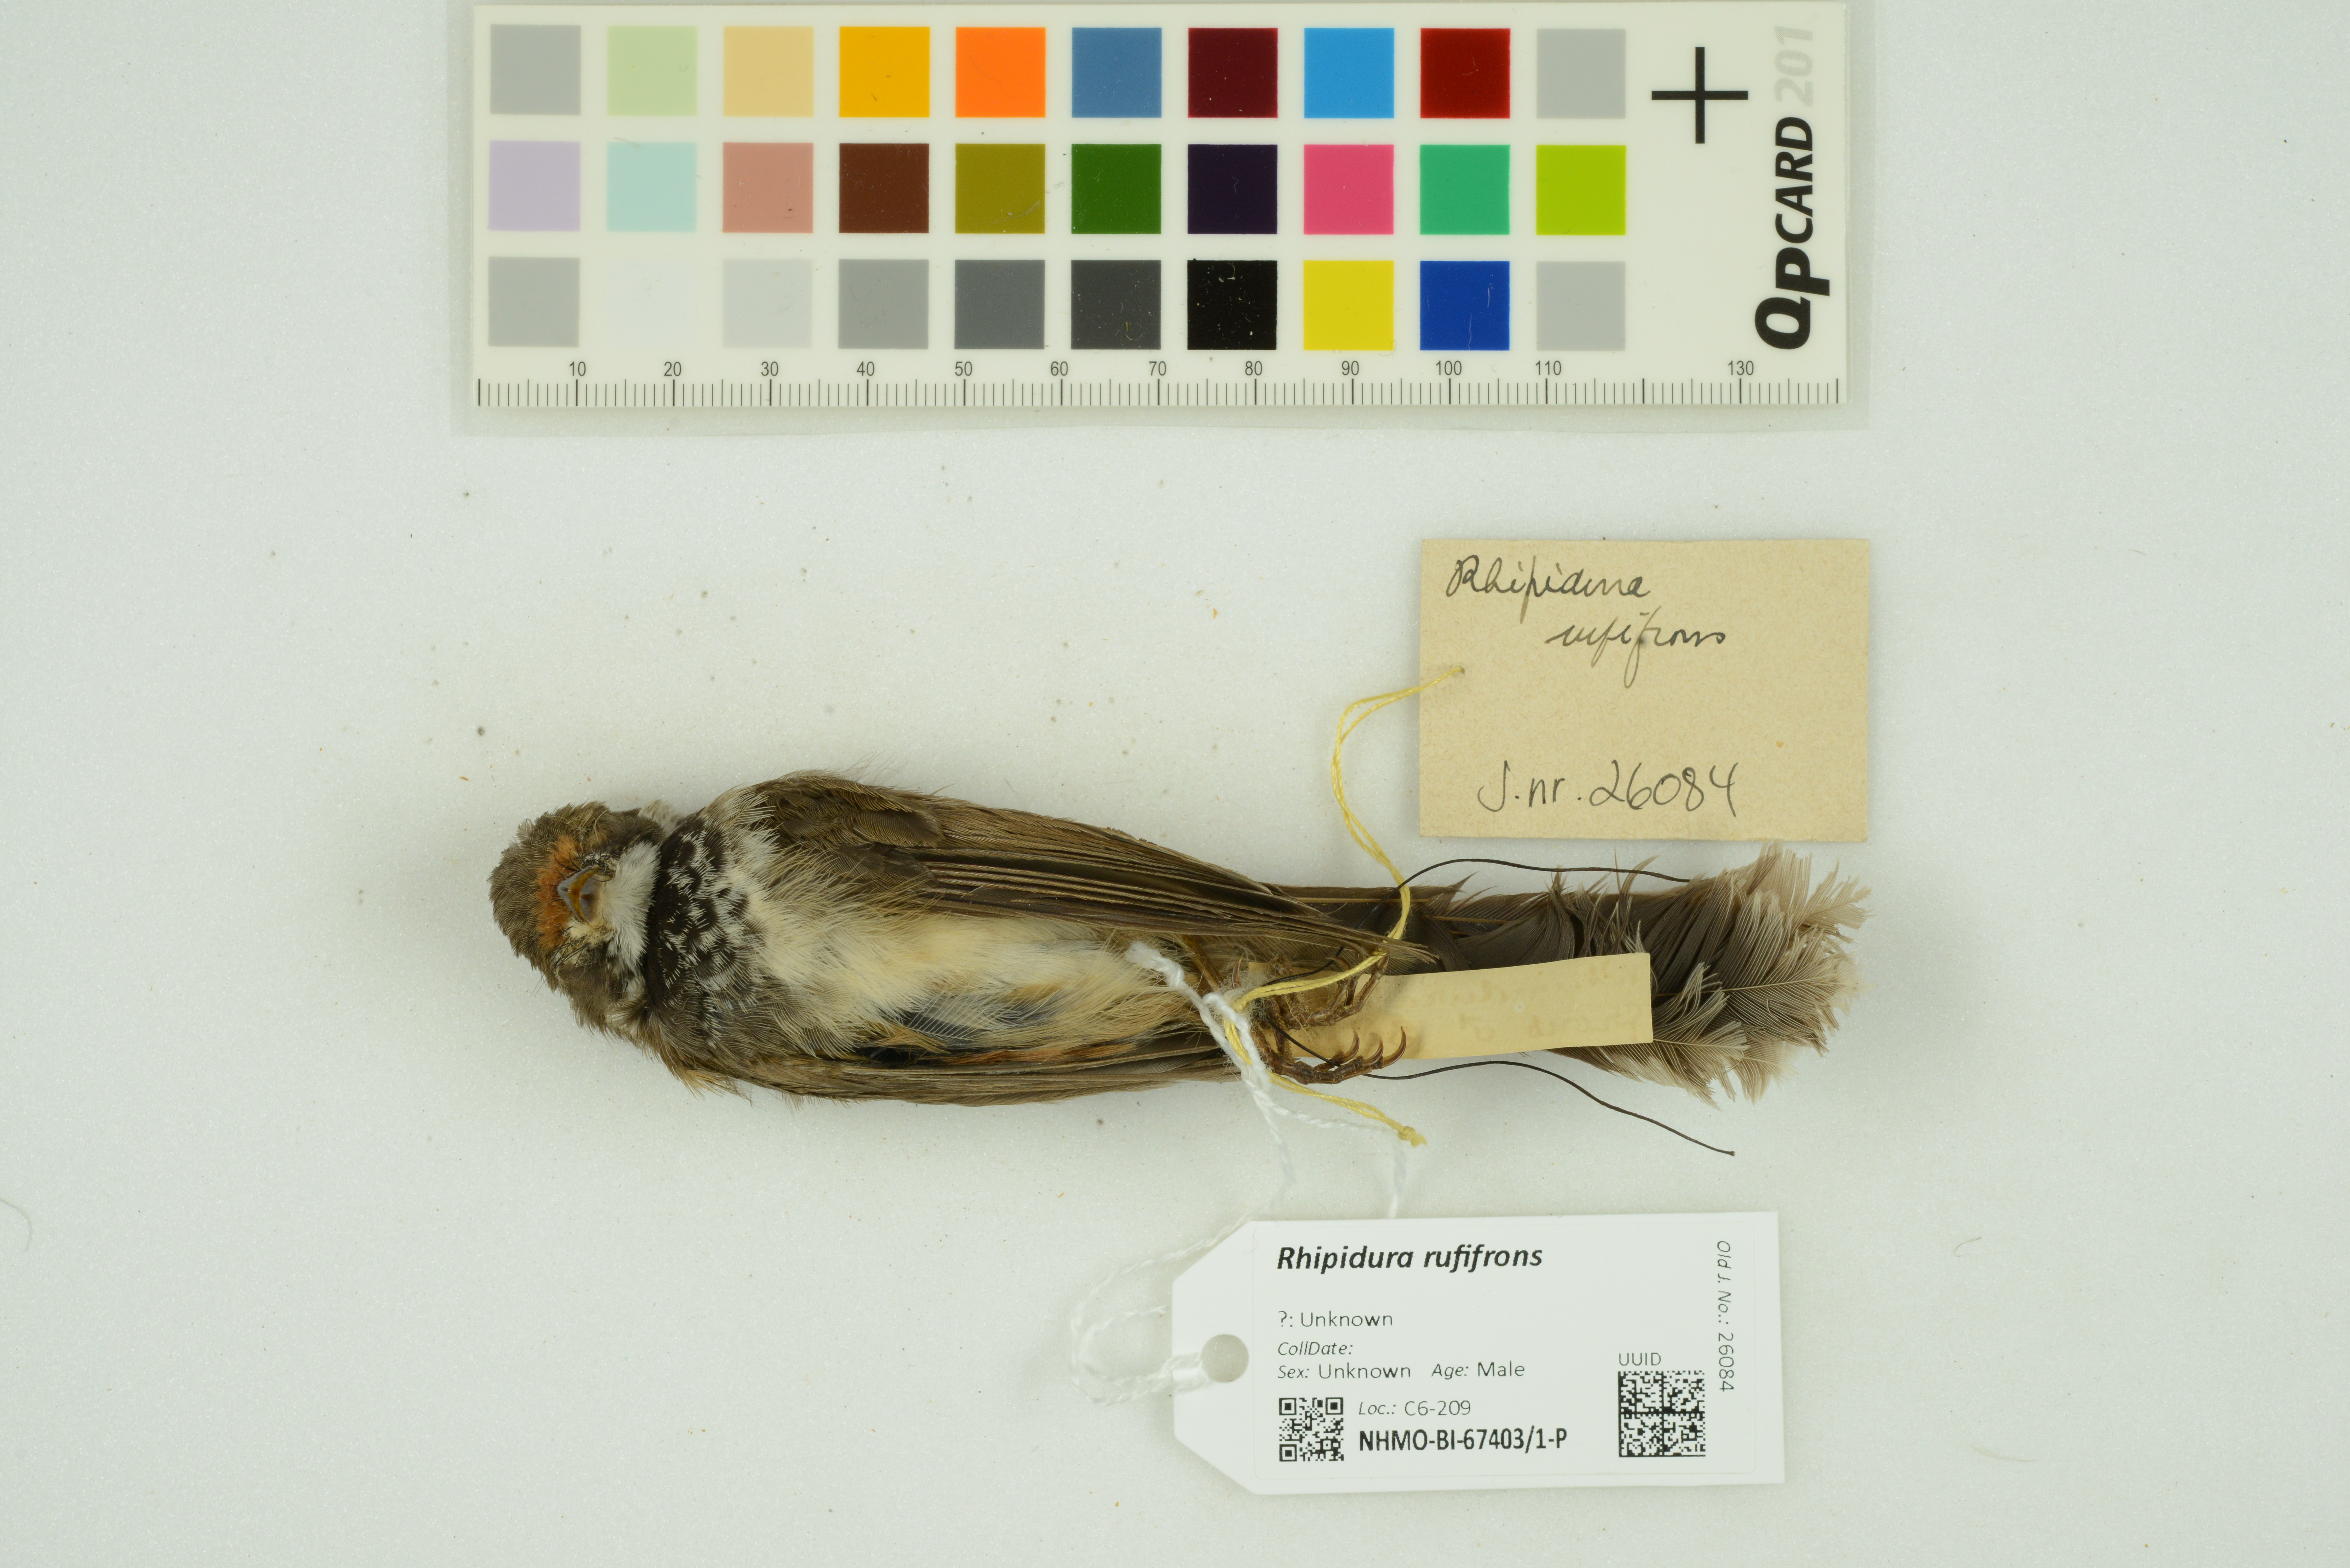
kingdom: Animalia
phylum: Chordata
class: Aves
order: Passeriformes
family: Rhipiduridae
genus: Rhipidura
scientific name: Rhipidura rufifrons
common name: Rufous fantail
